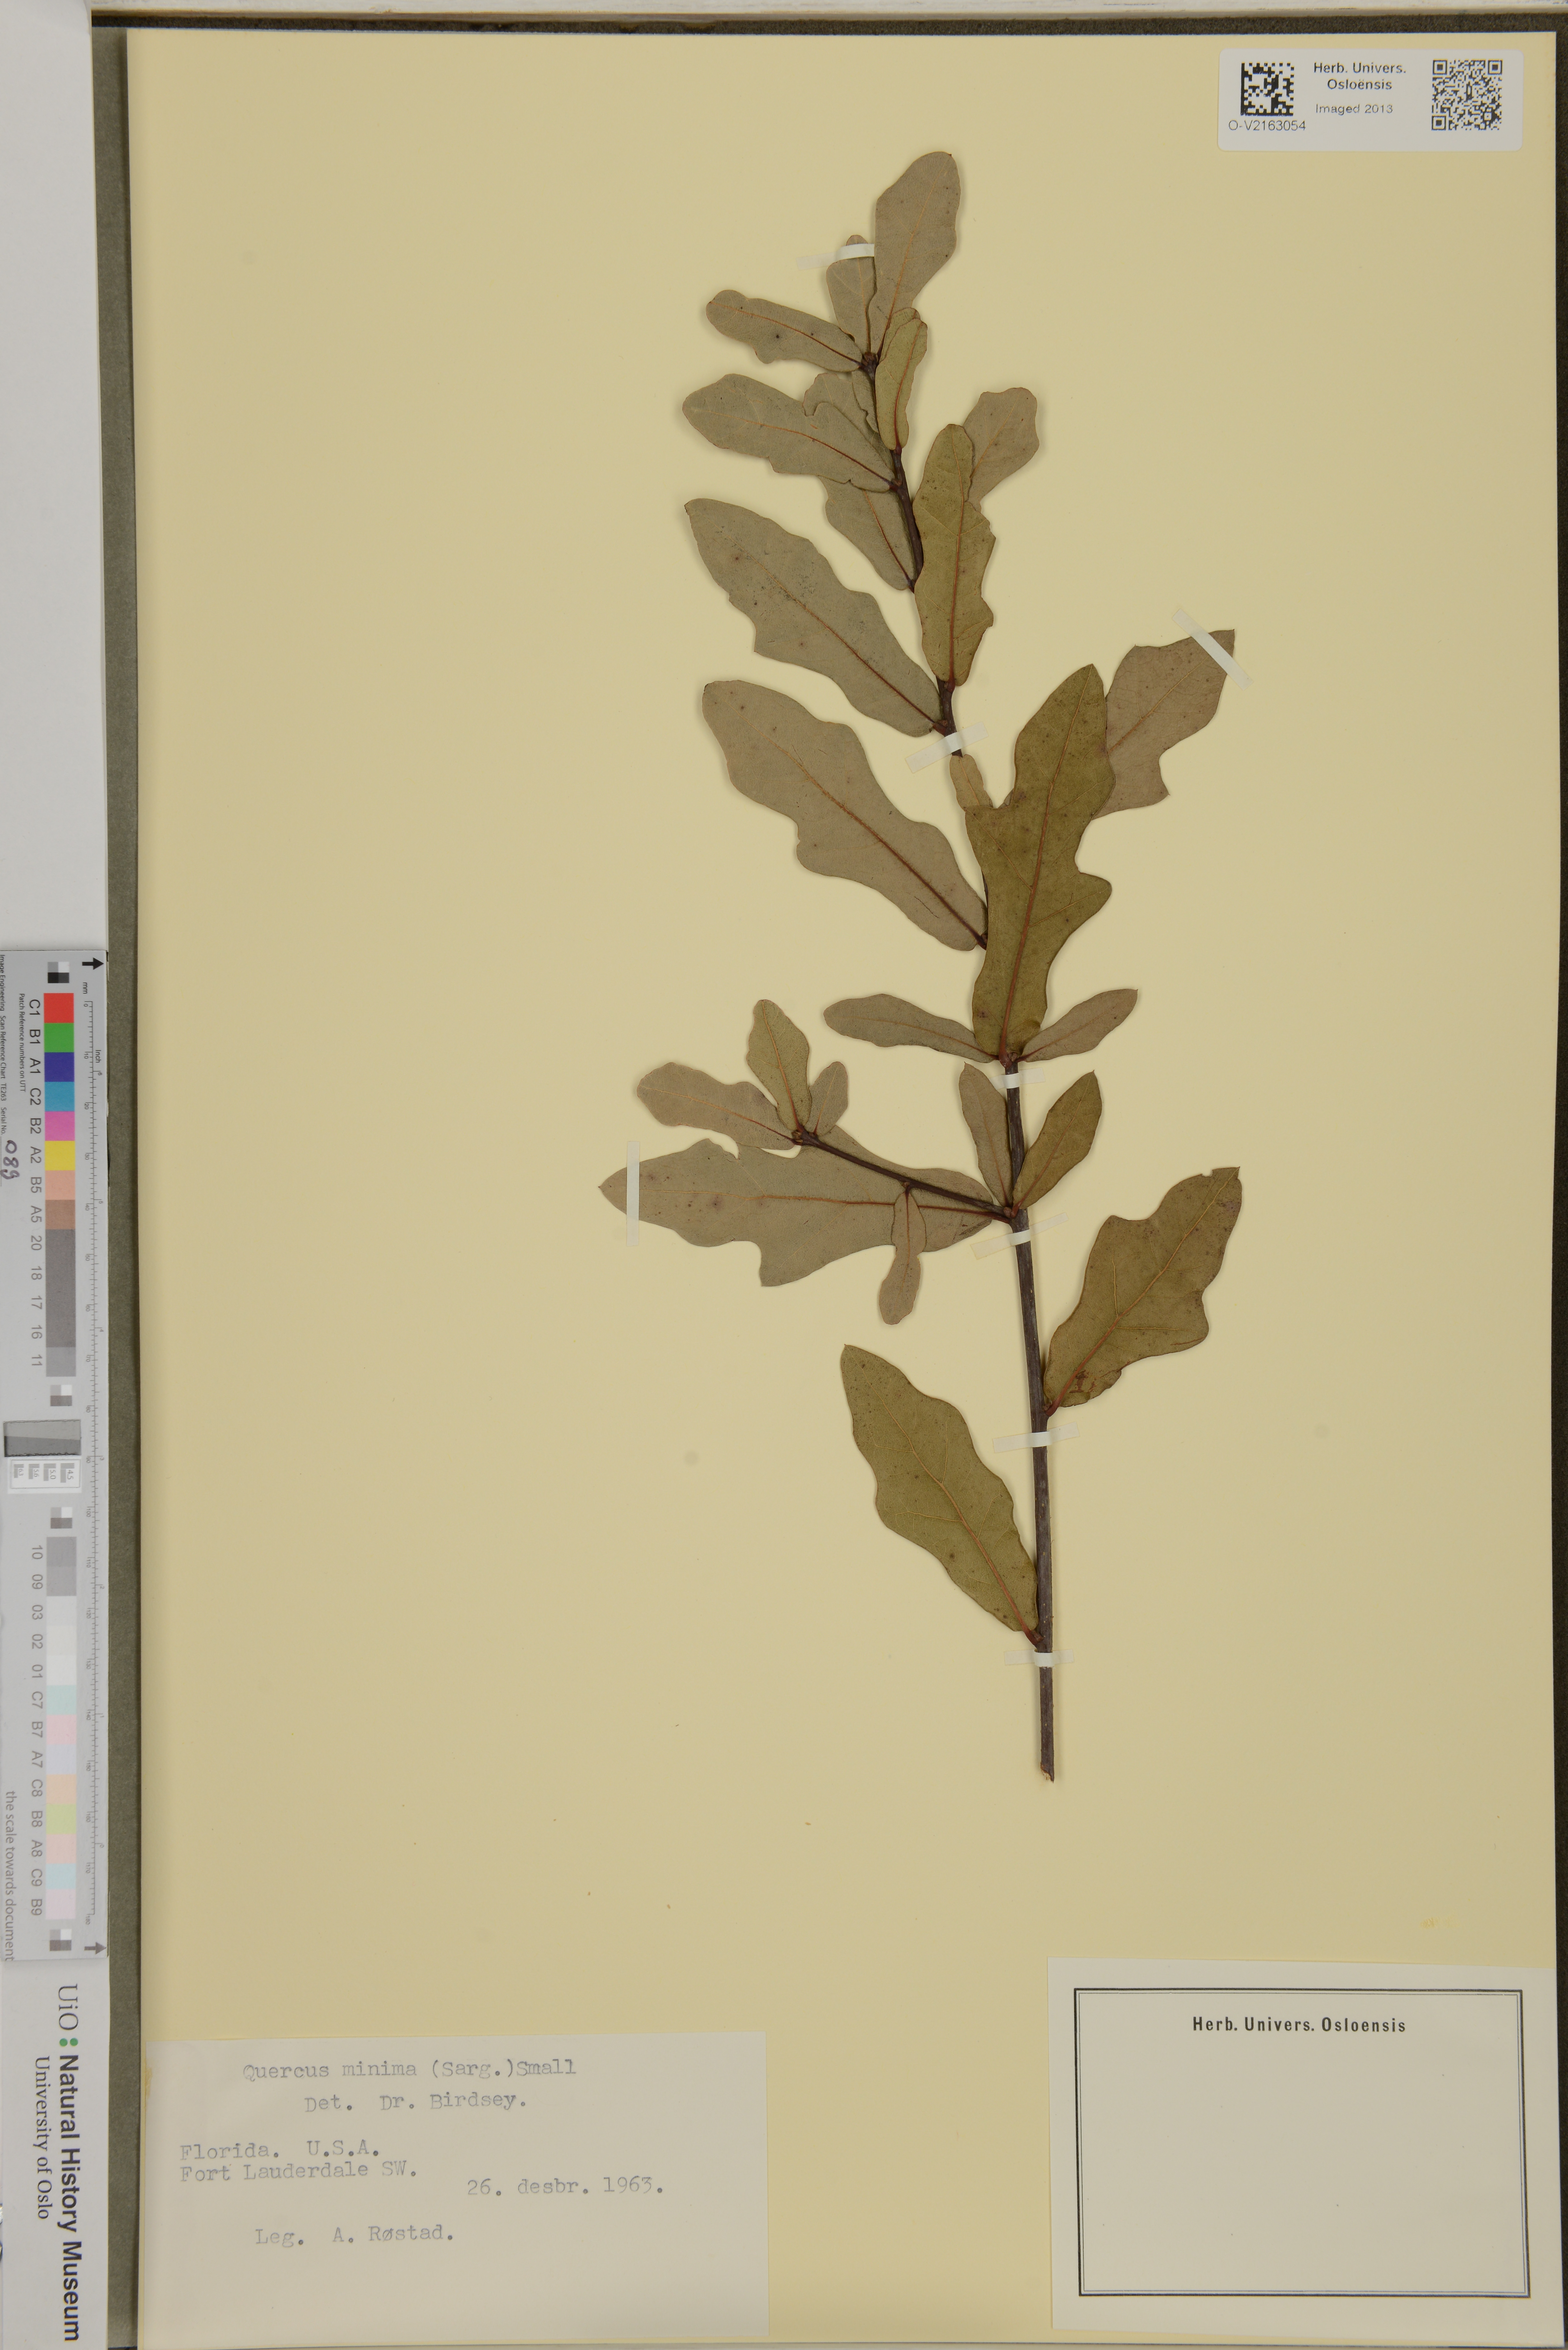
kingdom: Plantae
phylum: Tracheophyta
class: Magnoliopsida
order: Fagales
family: Fagaceae
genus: Quercus
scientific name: Quercus minima
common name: Dwarf live oak
